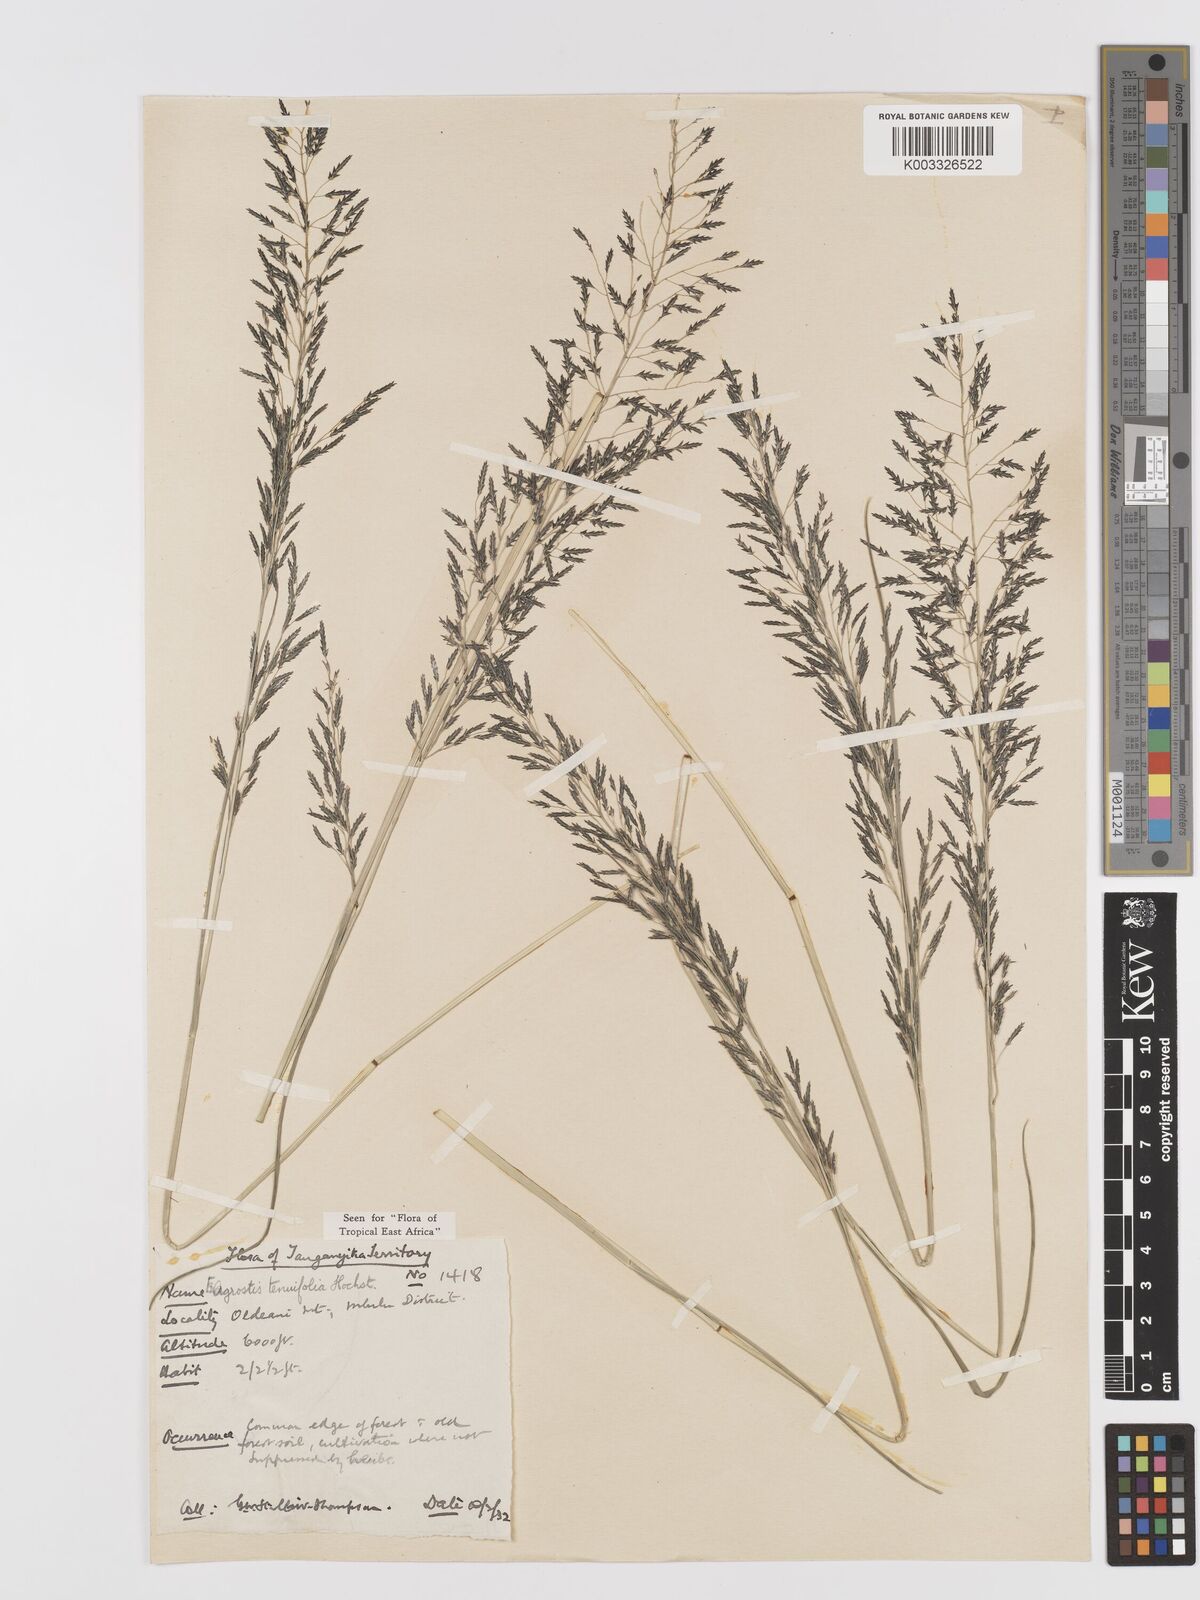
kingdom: Plantae
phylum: Tracheophyta
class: Liliopsida
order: Poales
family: Poaceae
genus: Eragrostis
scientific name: Eragrostis tenuifolia
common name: Elastic grass
